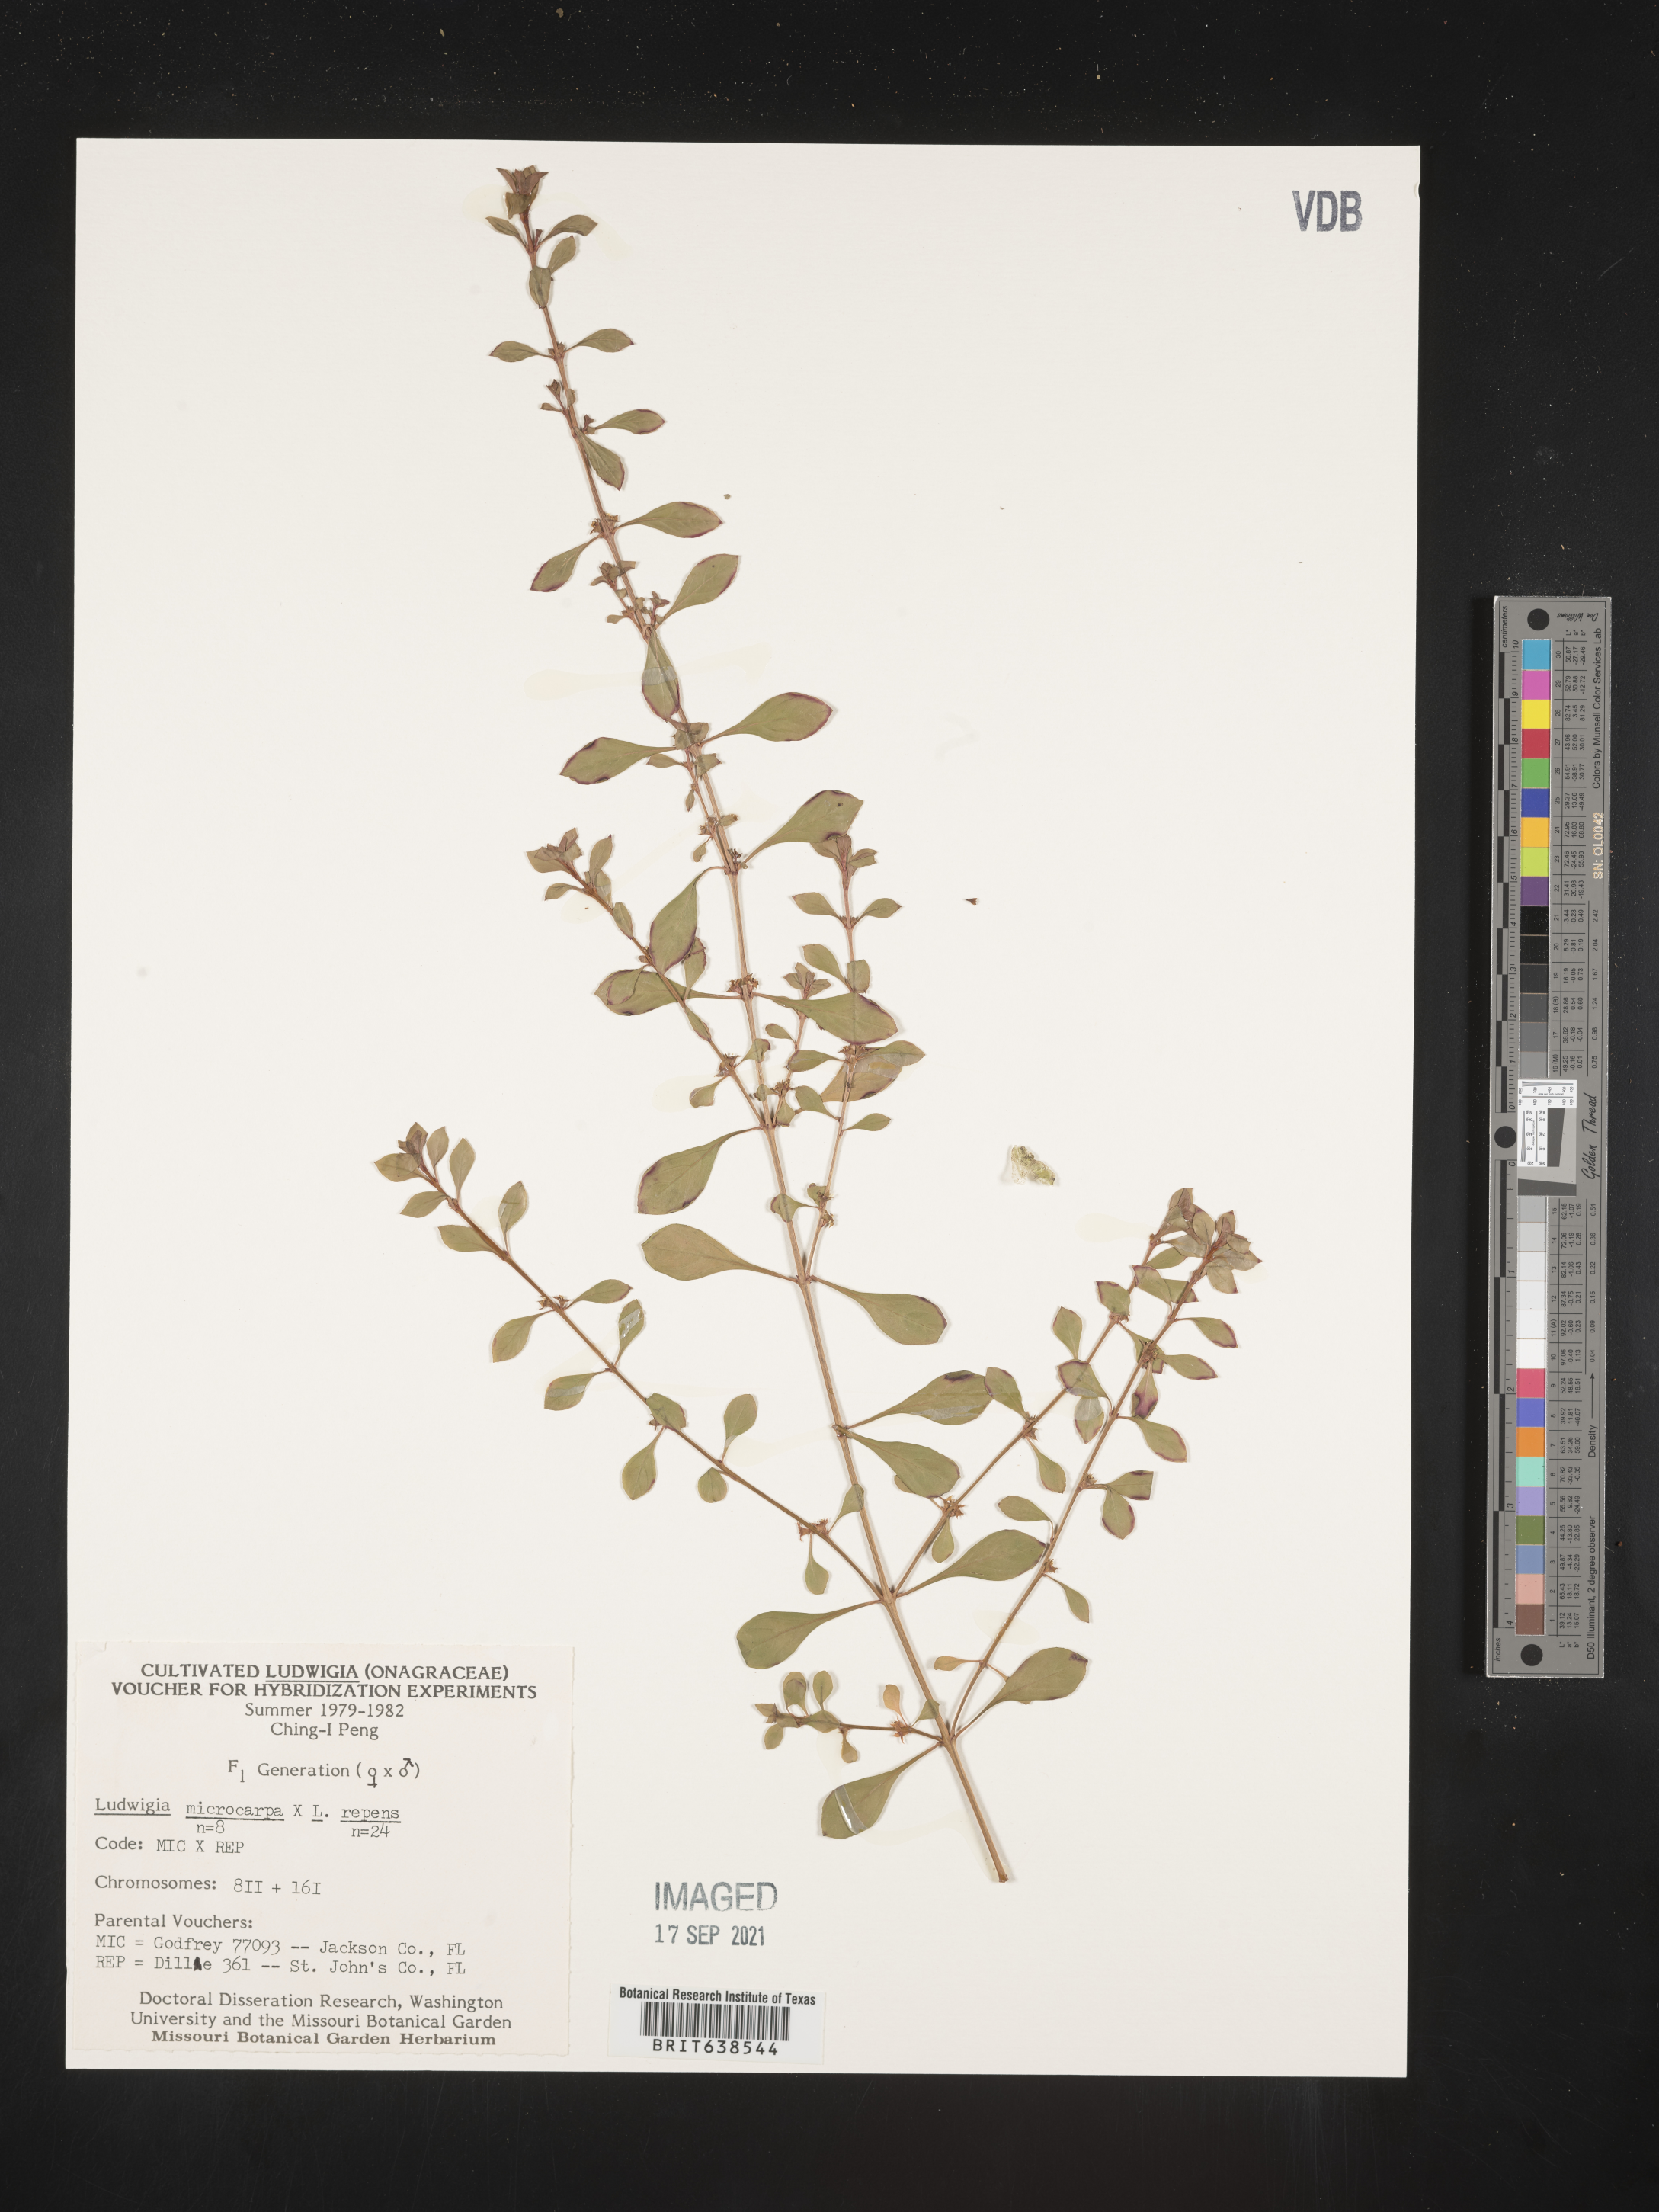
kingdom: Plantae
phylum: Tracheophyta
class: Magnoliopsida
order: Myrtales
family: Onagraceae
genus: Ludwigia
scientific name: Ludwigia
